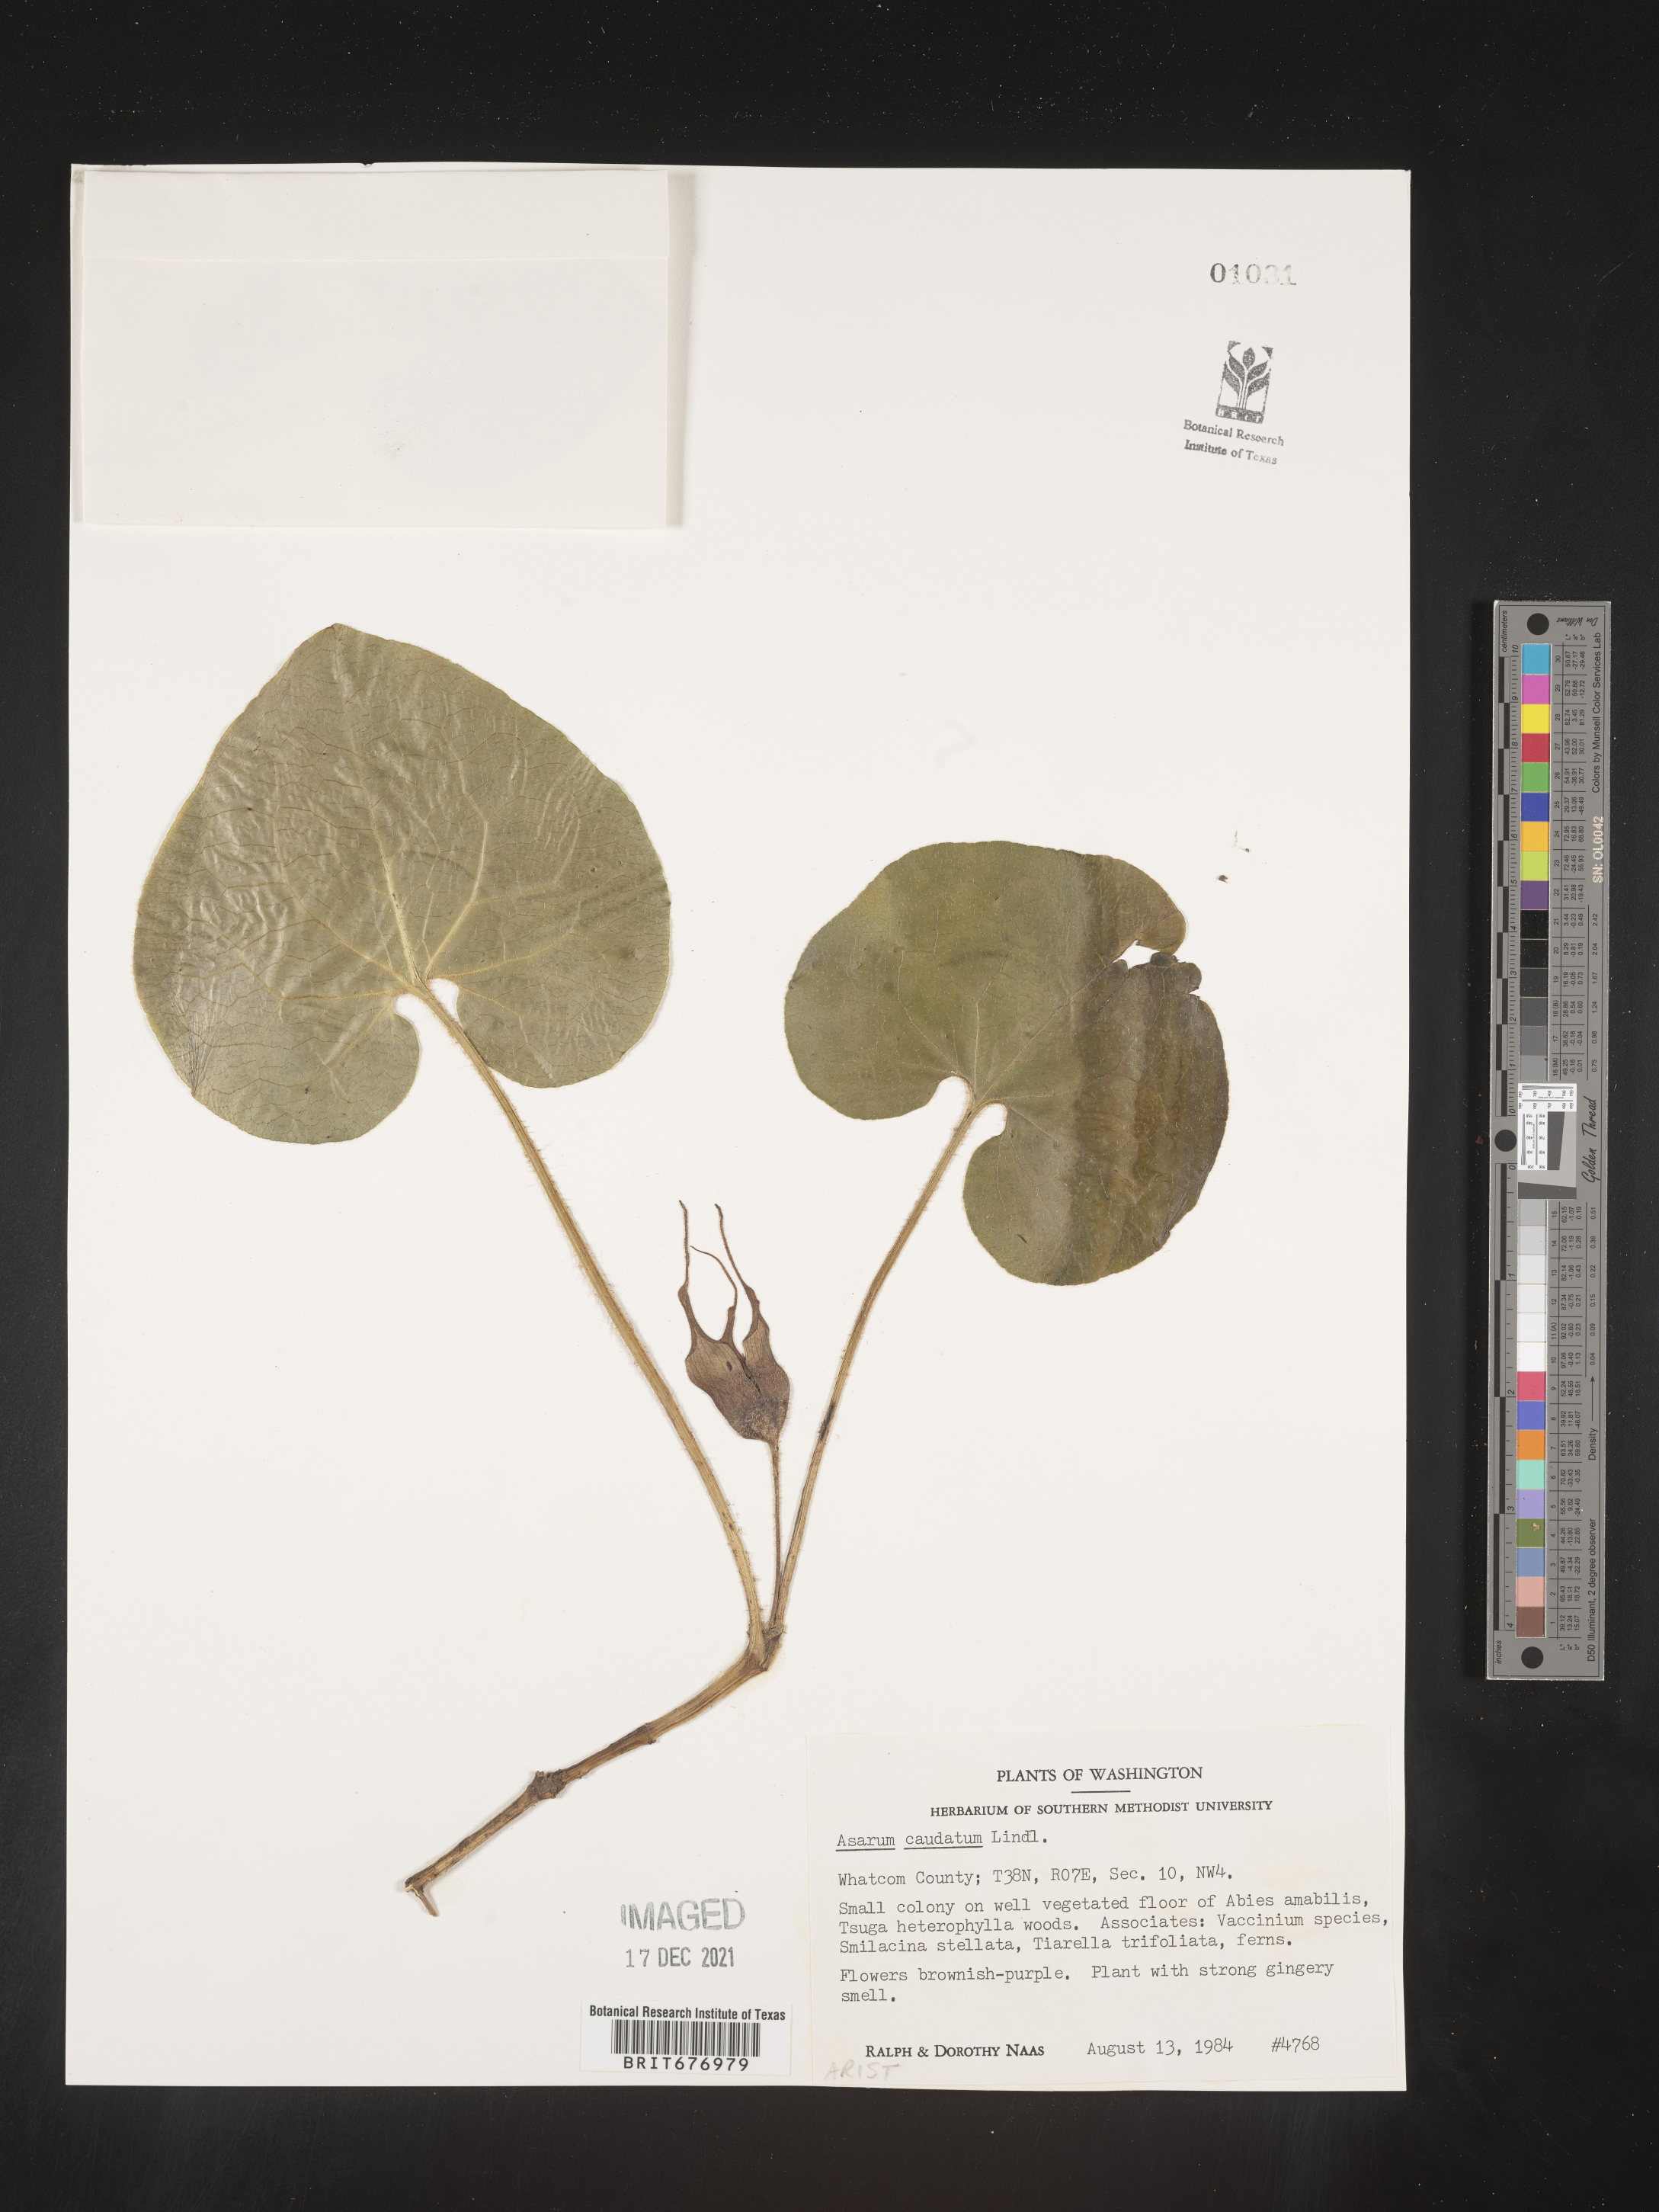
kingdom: Plantae
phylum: Tracheophyta
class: Magnoliopsida
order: Piperales
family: Aristolochiaceae
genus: Asarum
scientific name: Asarum caudatum
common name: Wild ginger
